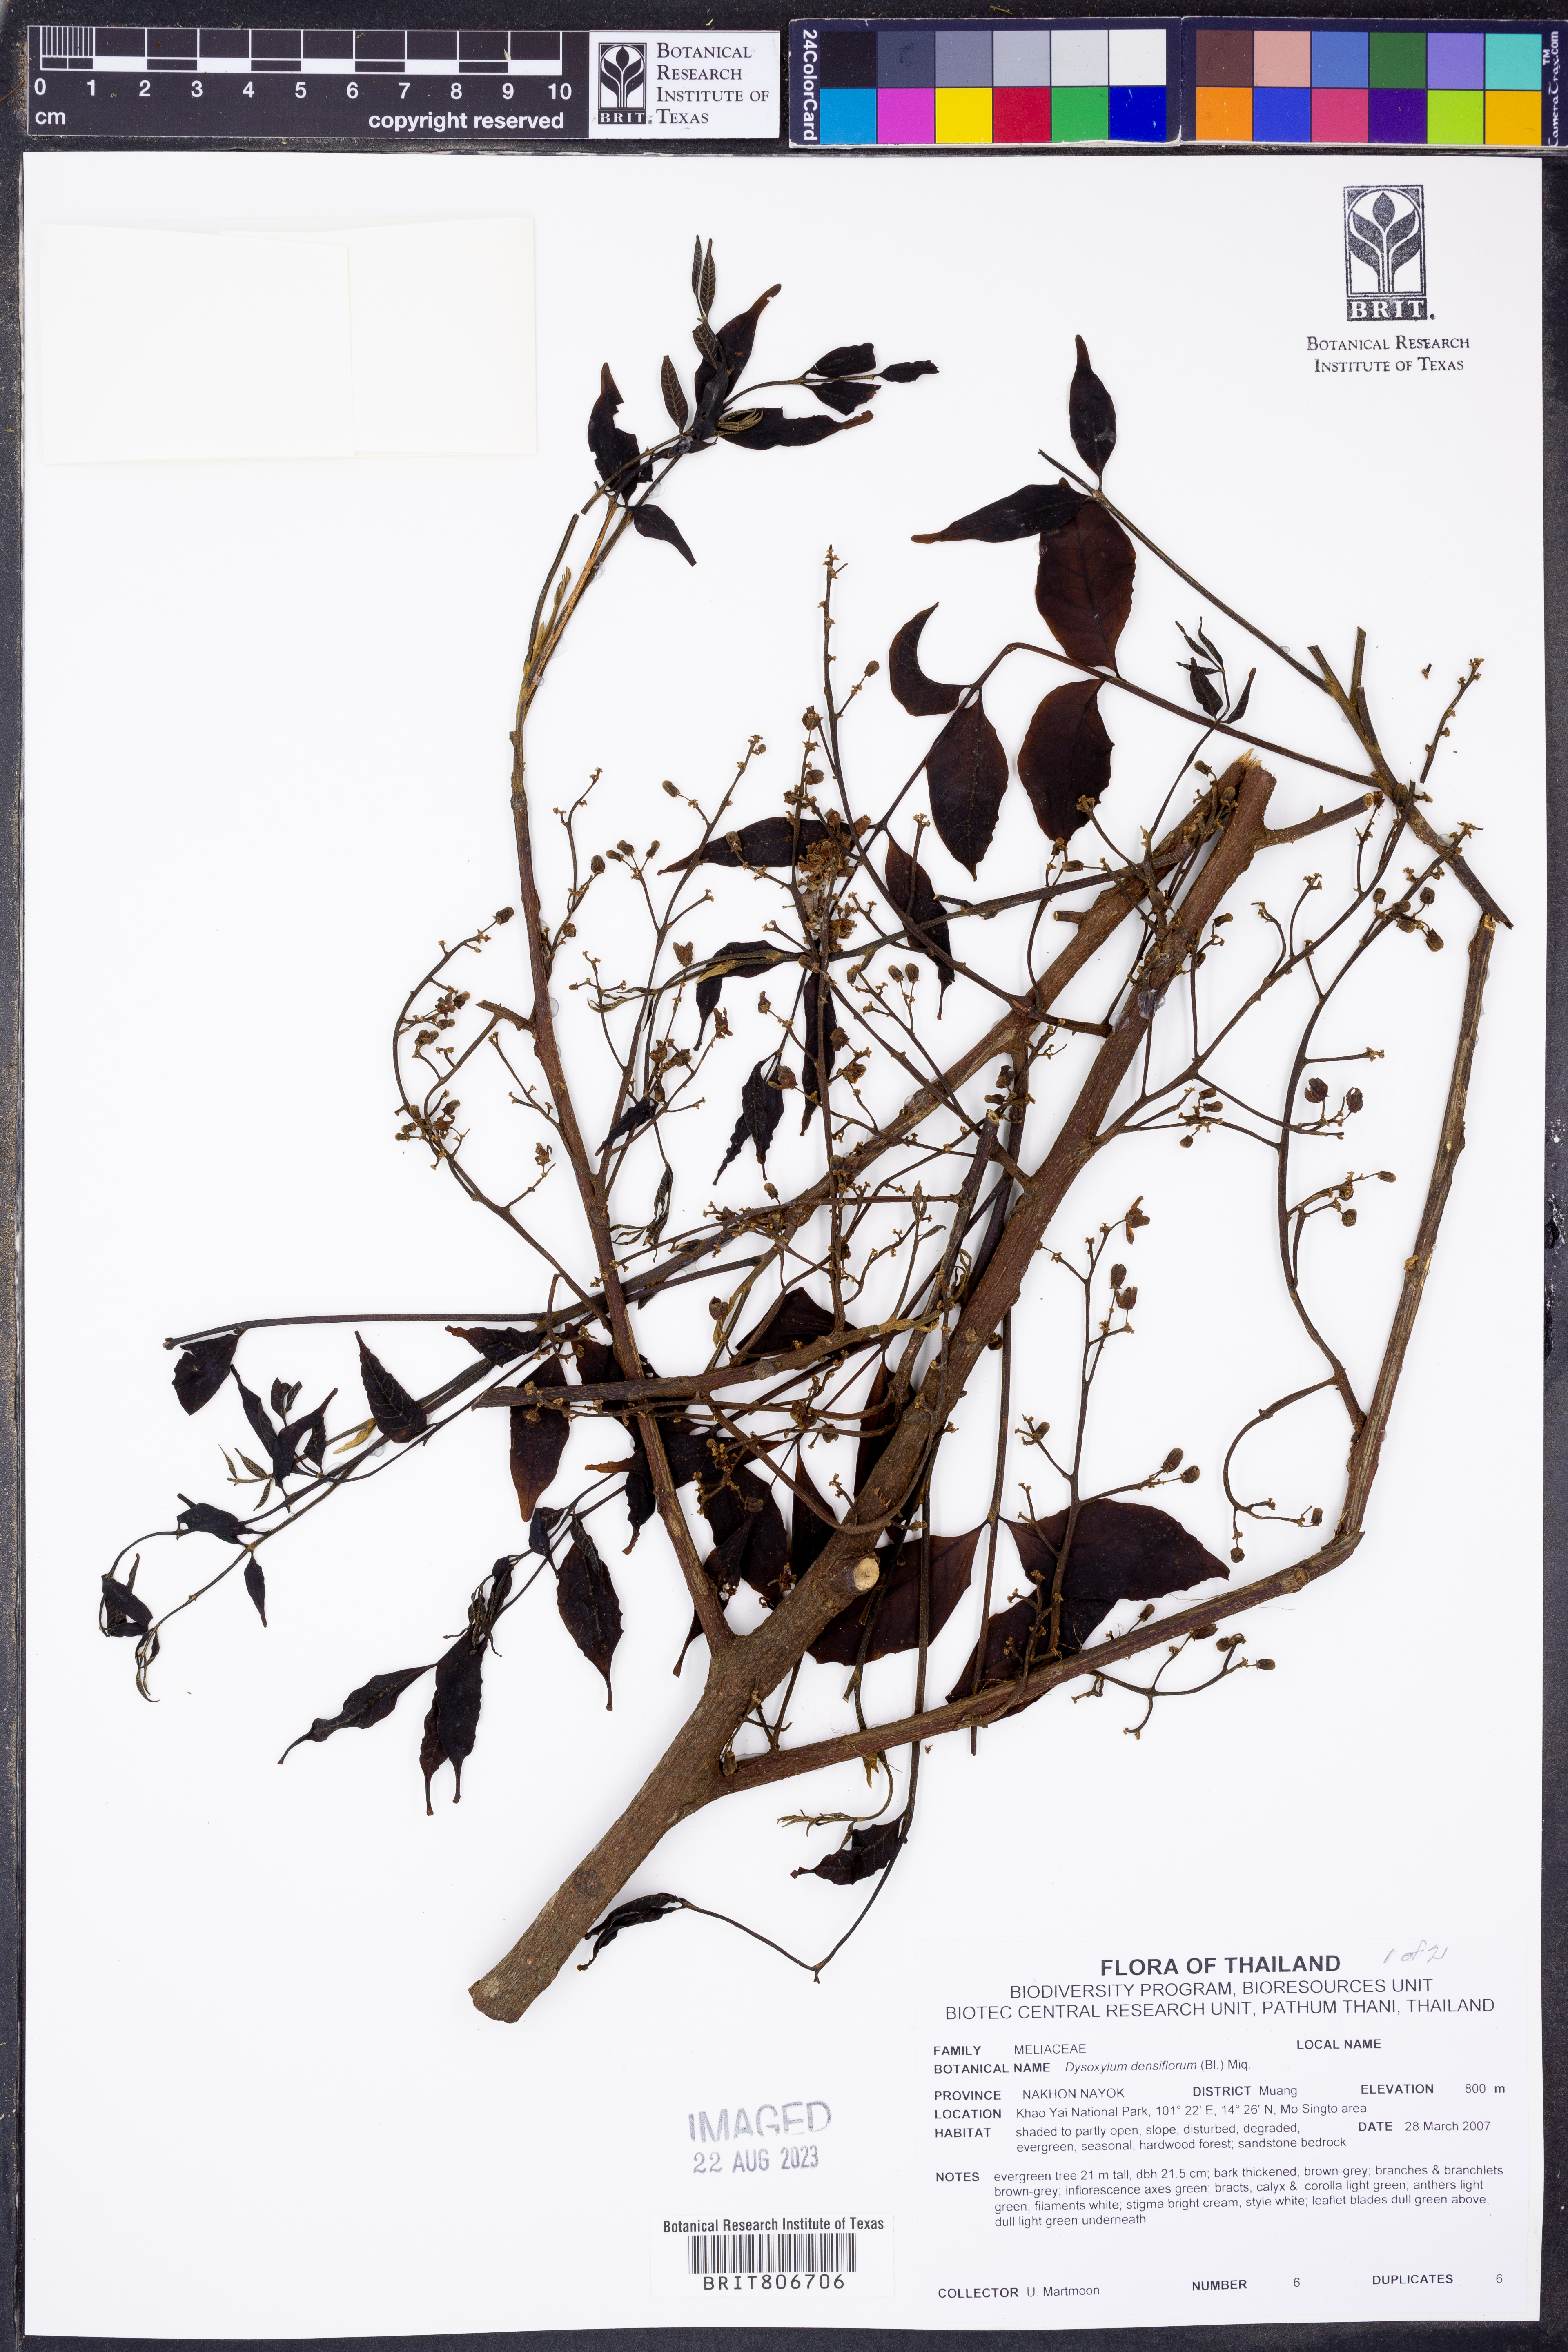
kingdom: Plantae
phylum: Tracheophyta
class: Magnoliopsida
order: Sapindales
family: Meliaceae
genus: Epicharis
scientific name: Epicharis densiflora
